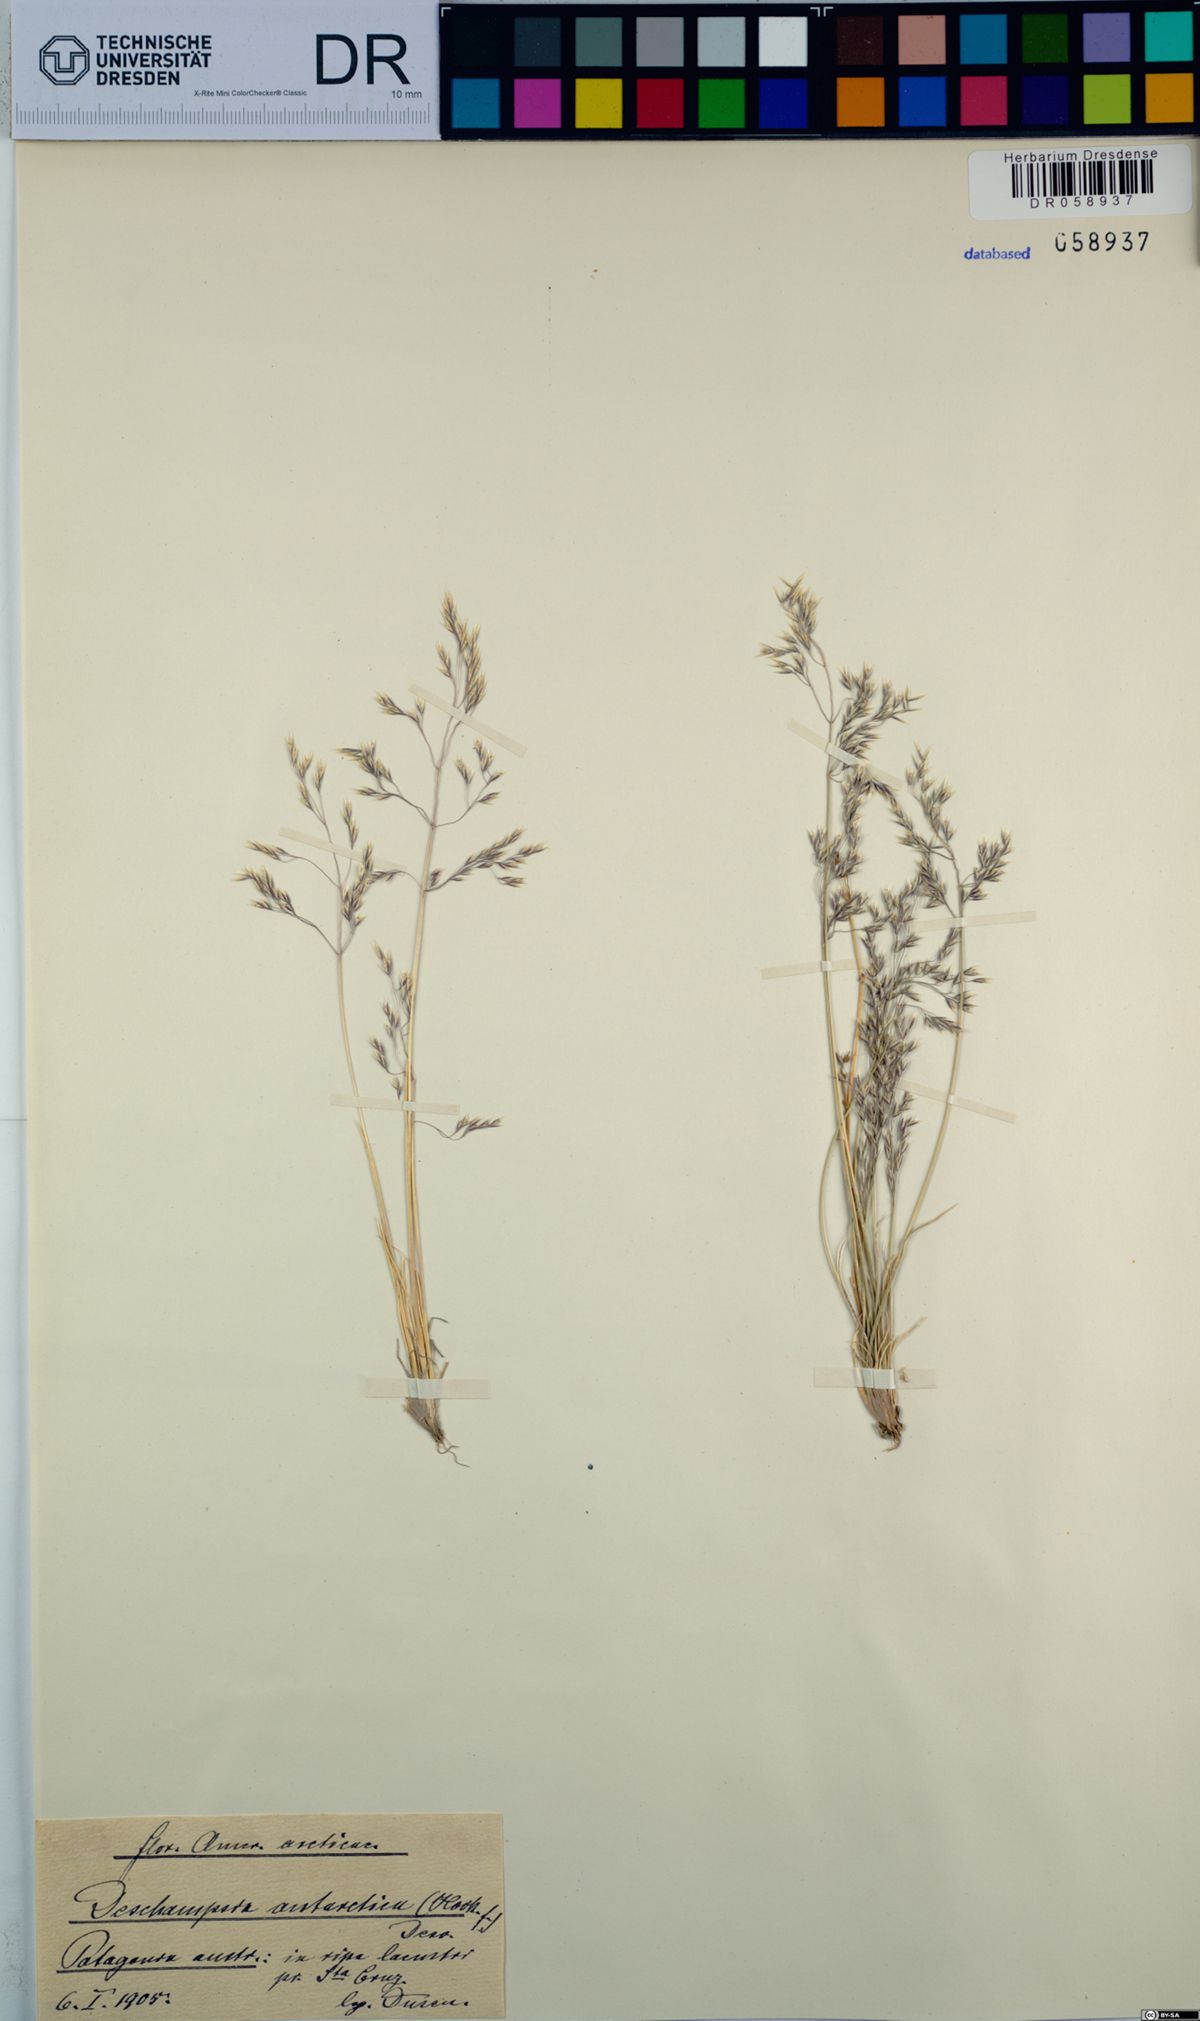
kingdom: Plantae
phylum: Tracheophyta
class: Liliopsida
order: Poales
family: Poaceae
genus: Deschampsia
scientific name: Deschampsia antarctica
